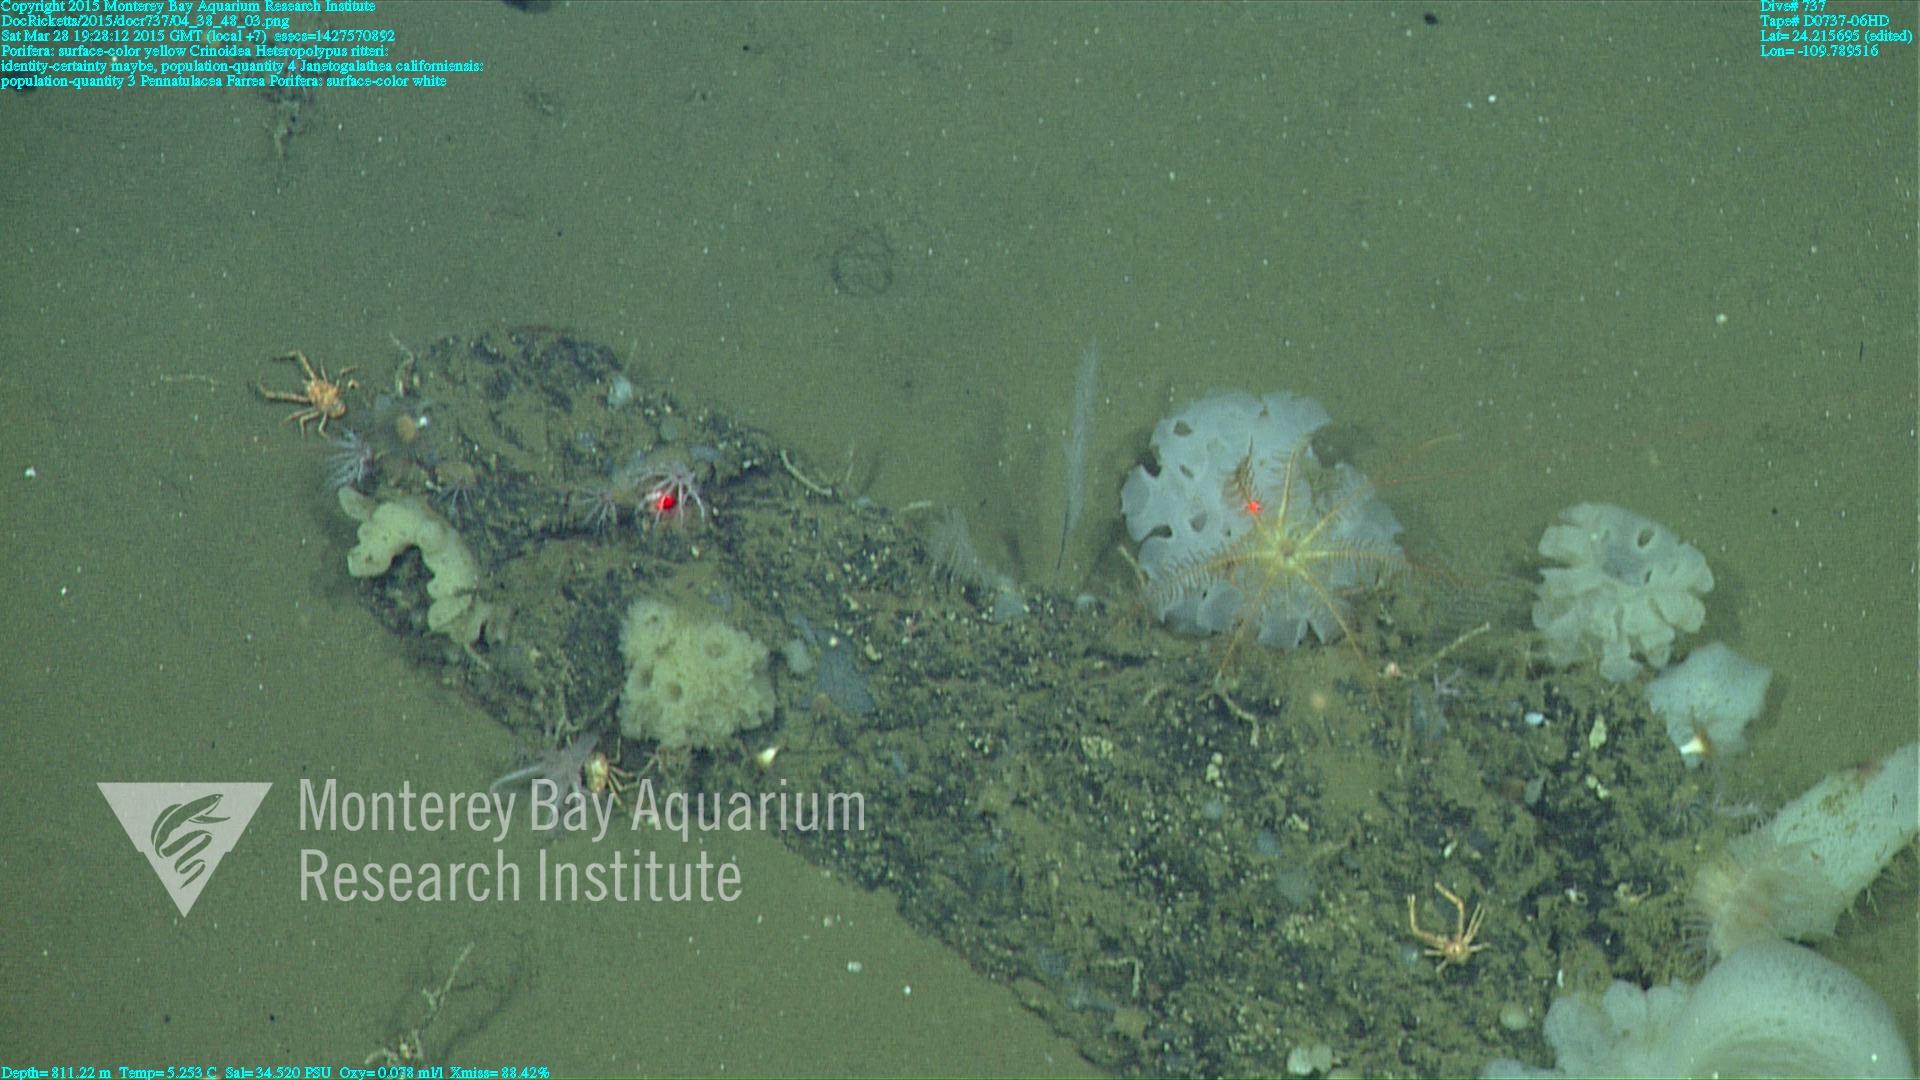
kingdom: Animalia
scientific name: Animalia
